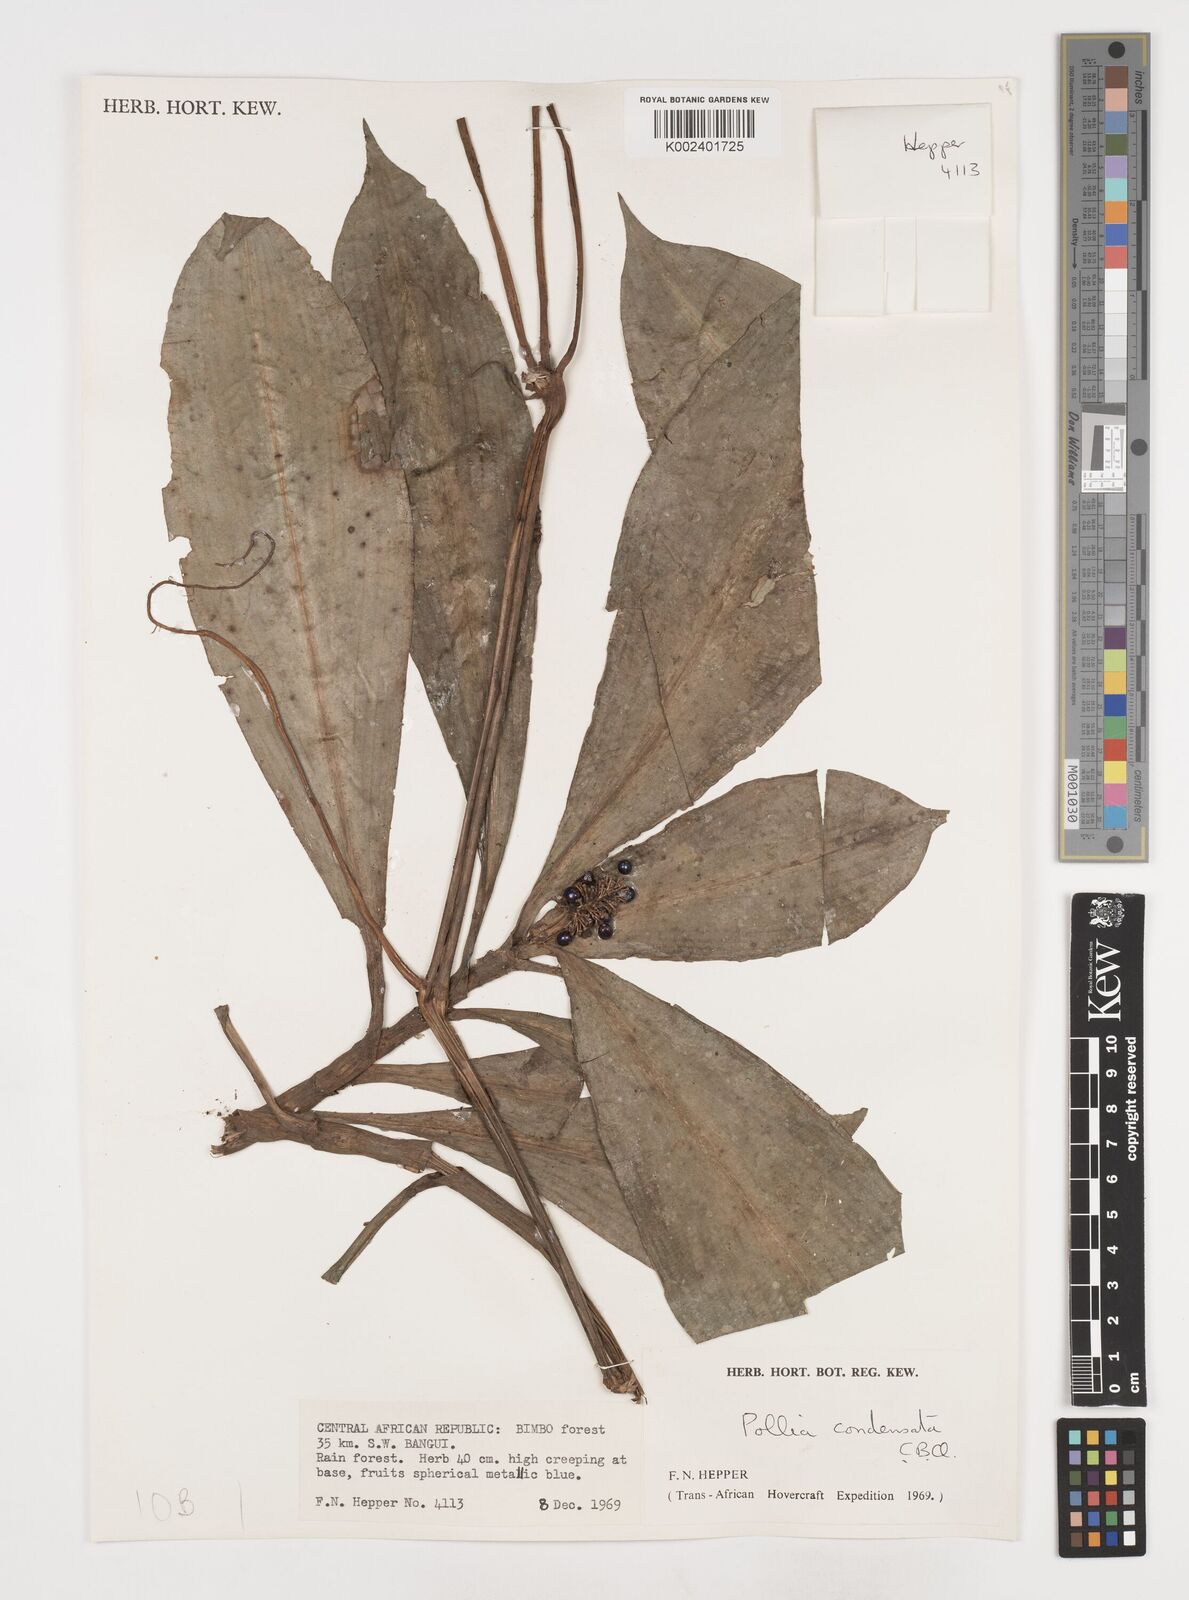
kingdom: Plantae
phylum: Tracheophyta
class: Liliopsida
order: Commelinales
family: Commelinaceae
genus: Pollia
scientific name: Pollia condensata
